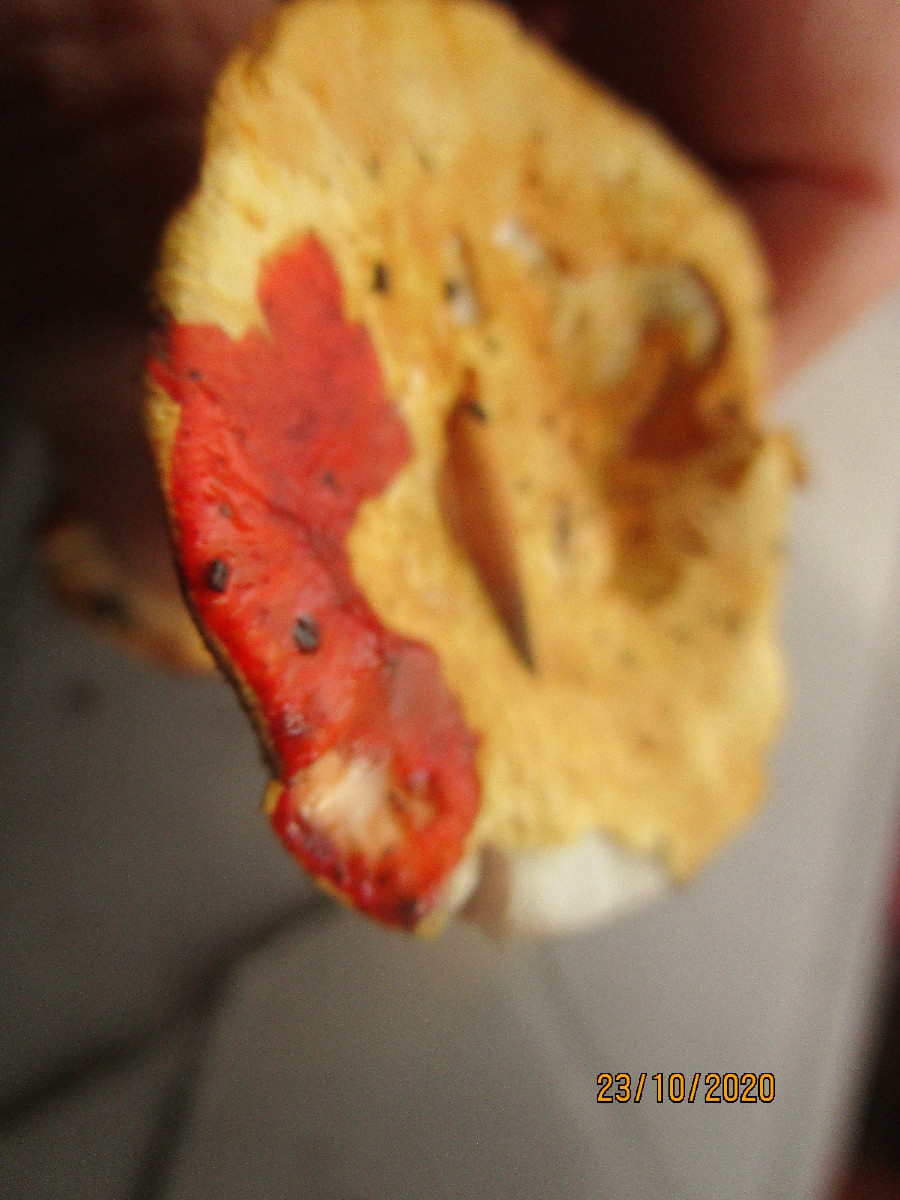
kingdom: Fungi
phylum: Basidiomycota
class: Agaricomycetes
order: Agaricales
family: Cortinariaceae
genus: Calonarius
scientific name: Calonarius catharinae
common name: Katrines slørhat
